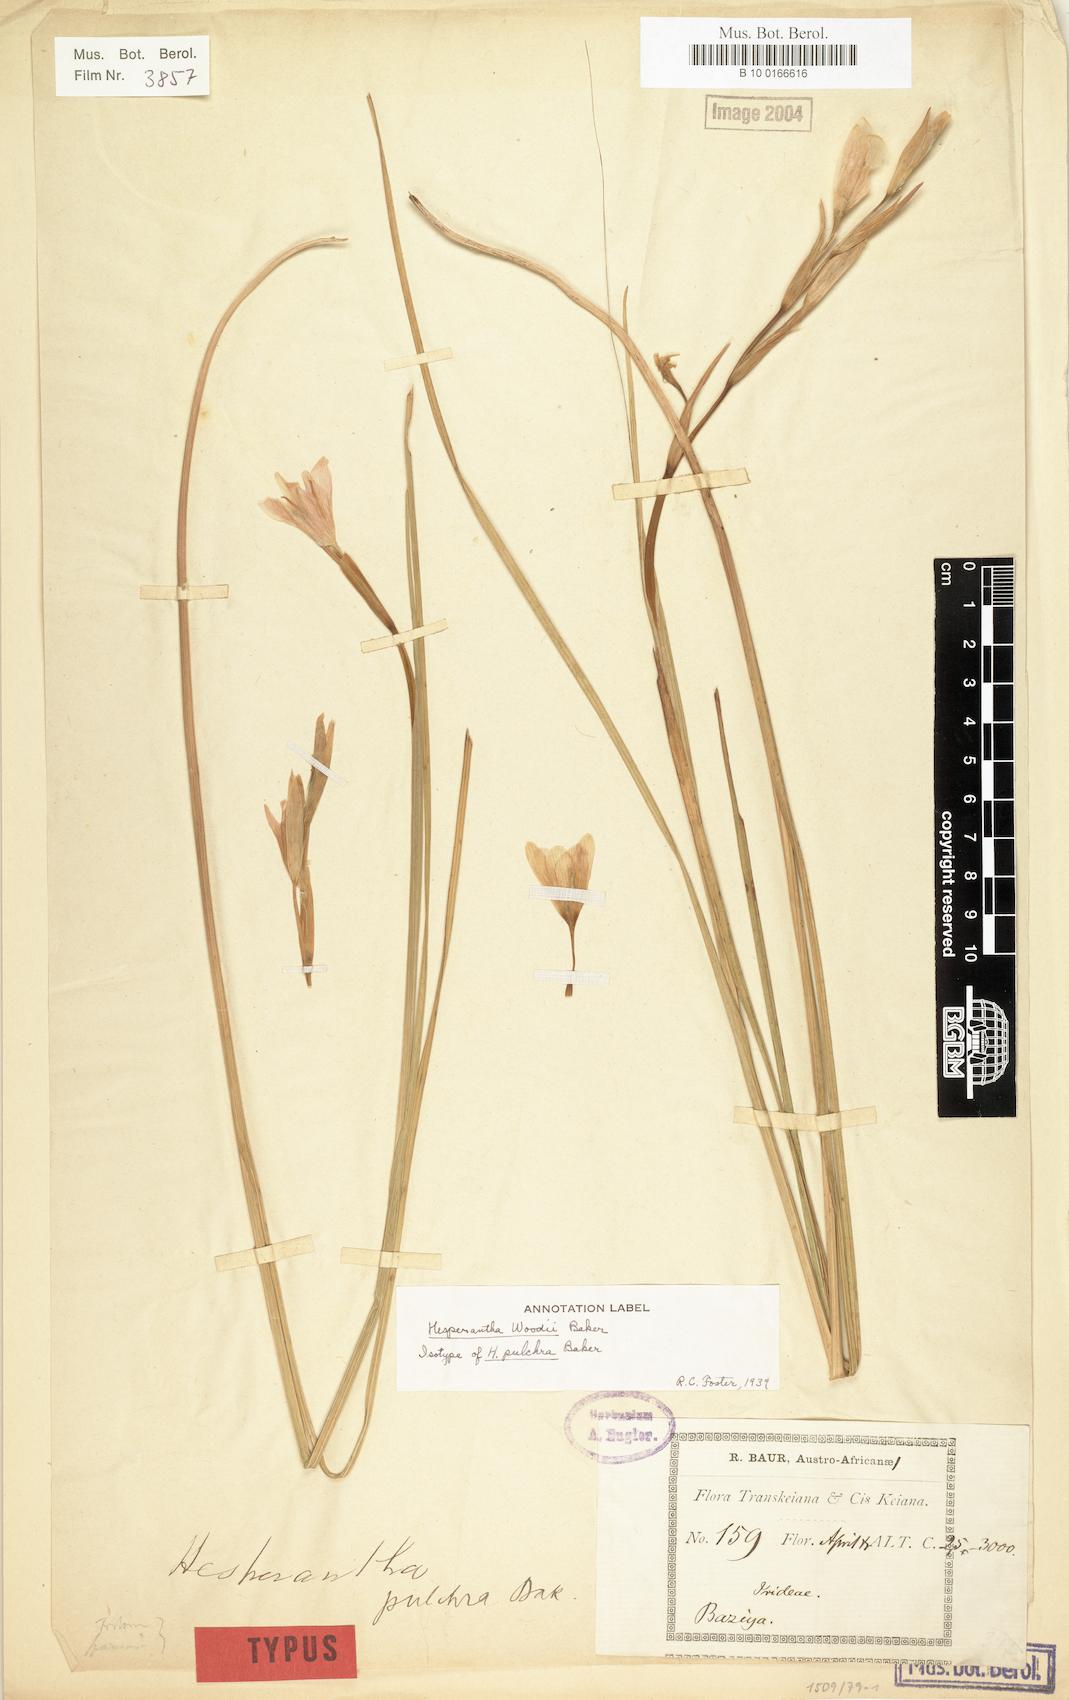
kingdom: Plantae
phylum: Tracheophyta
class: Liliopsida
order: Asparagales
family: Iridaceae
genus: Hesperantha
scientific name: Hesperantha woodii
